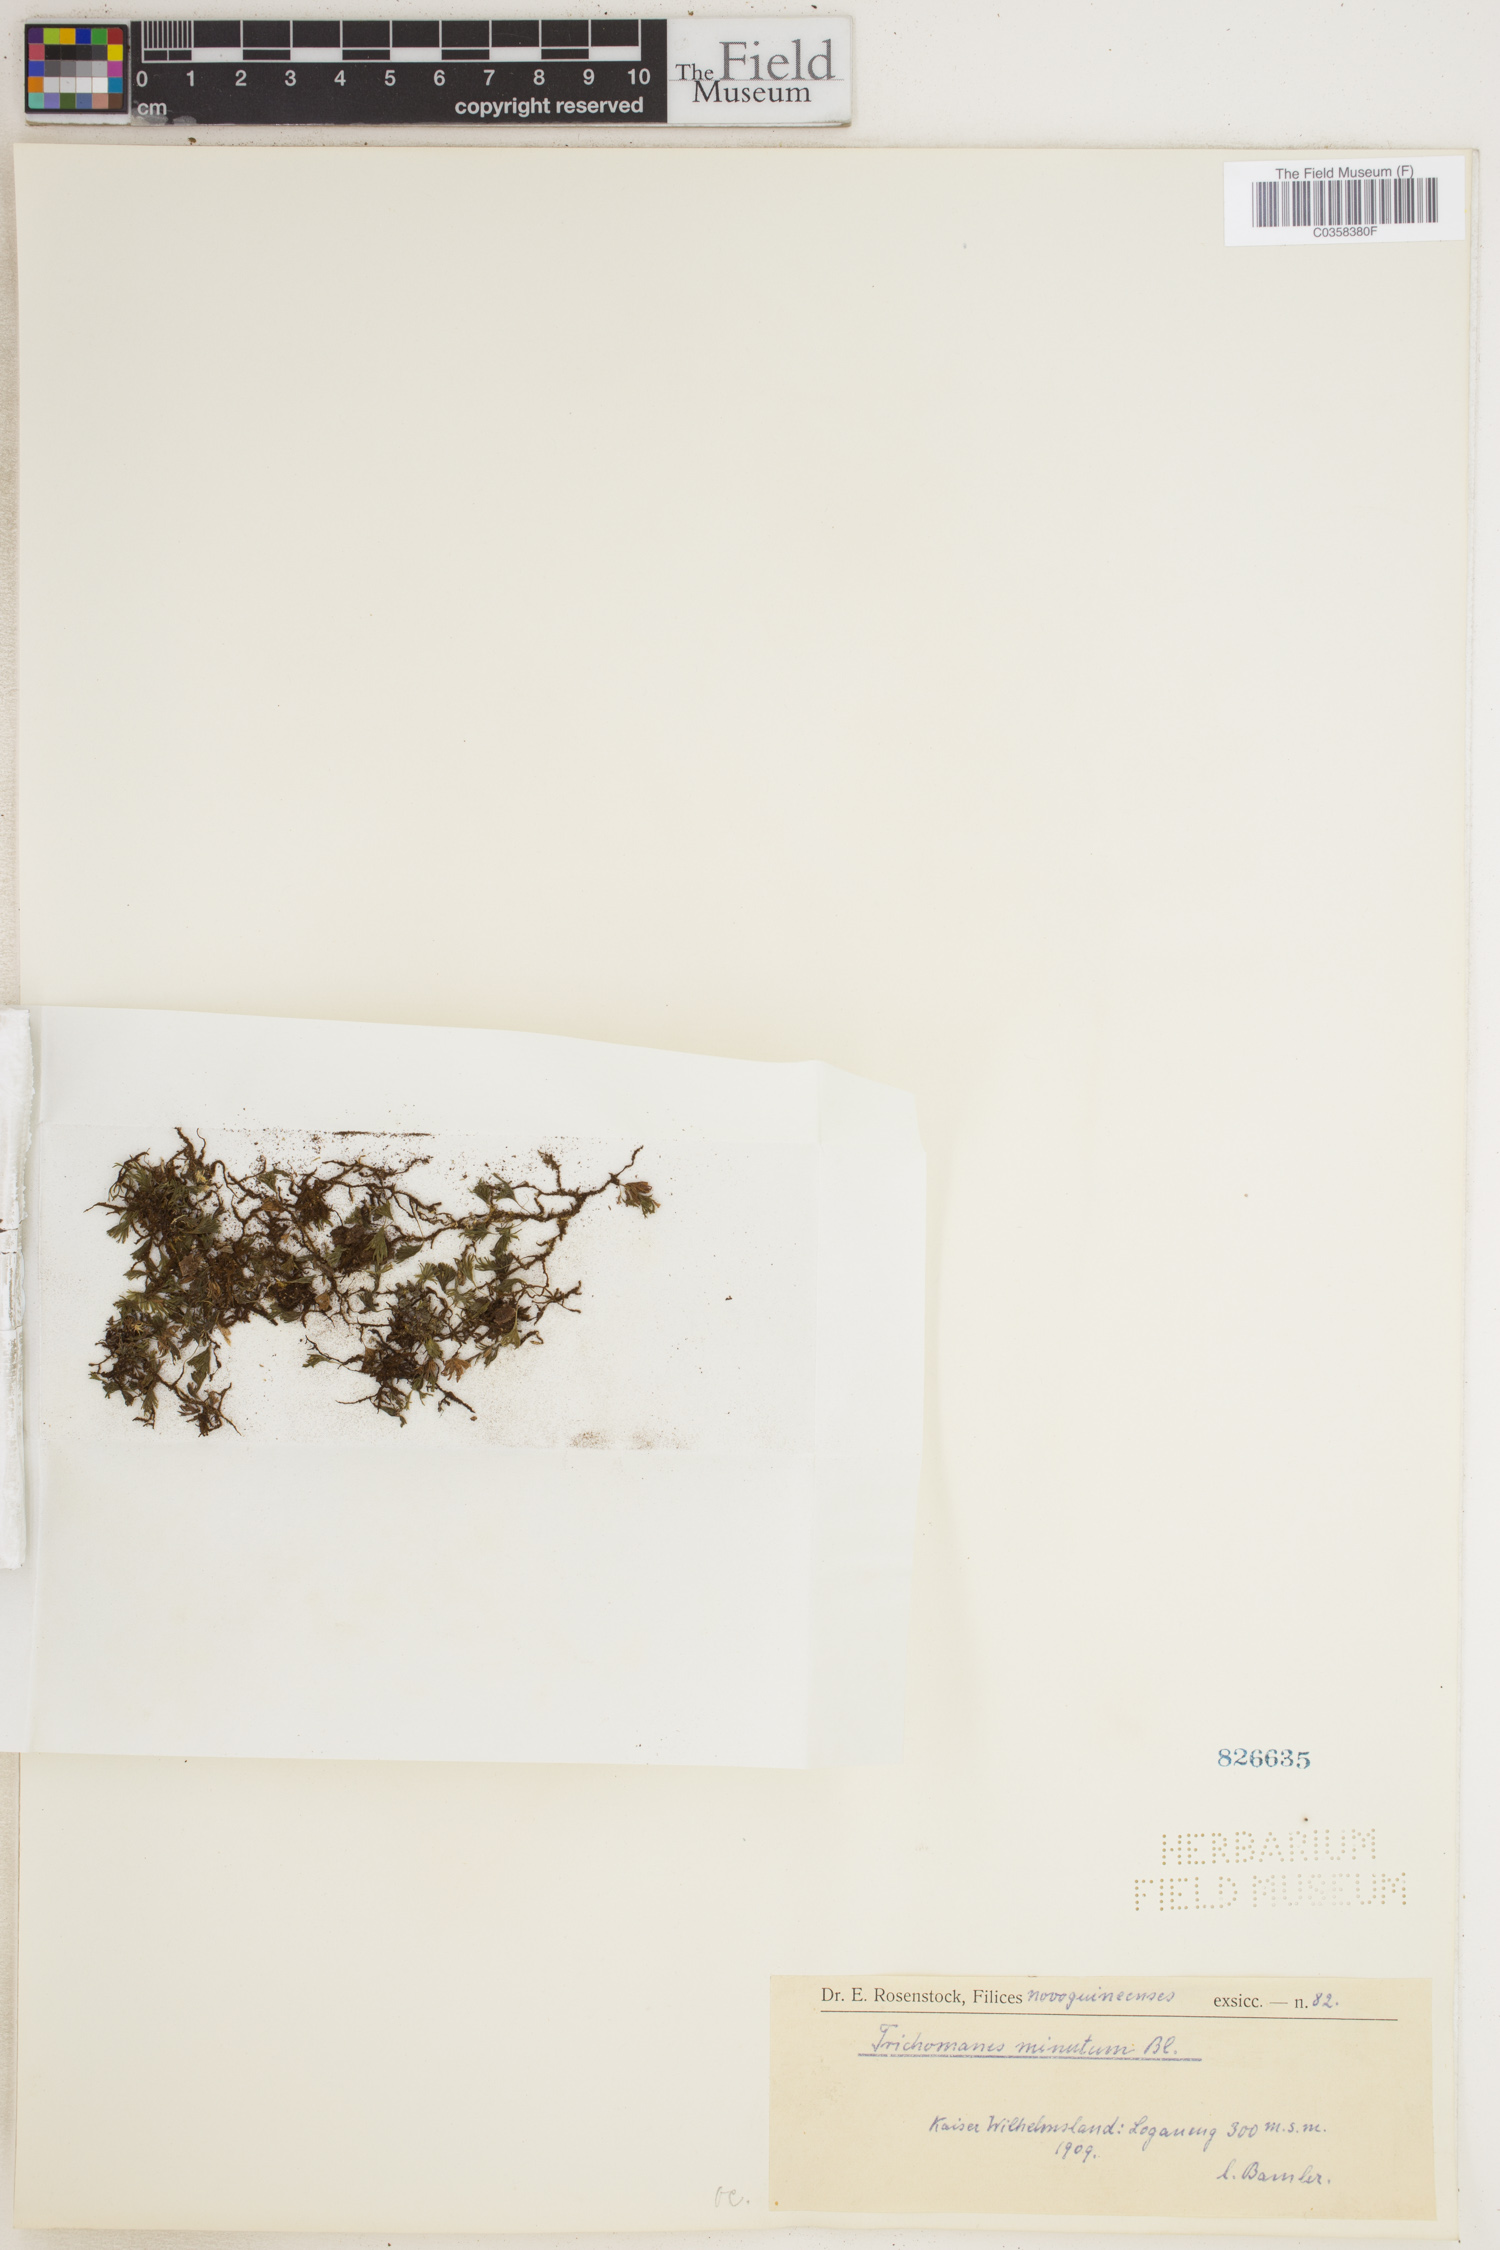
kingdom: Plantae
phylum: Tracheophyta
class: Polypodiopsida
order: Hymenophyllales
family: Hymenophyllaceae
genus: Crepidomanes
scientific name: Crepidomanes parvulum
